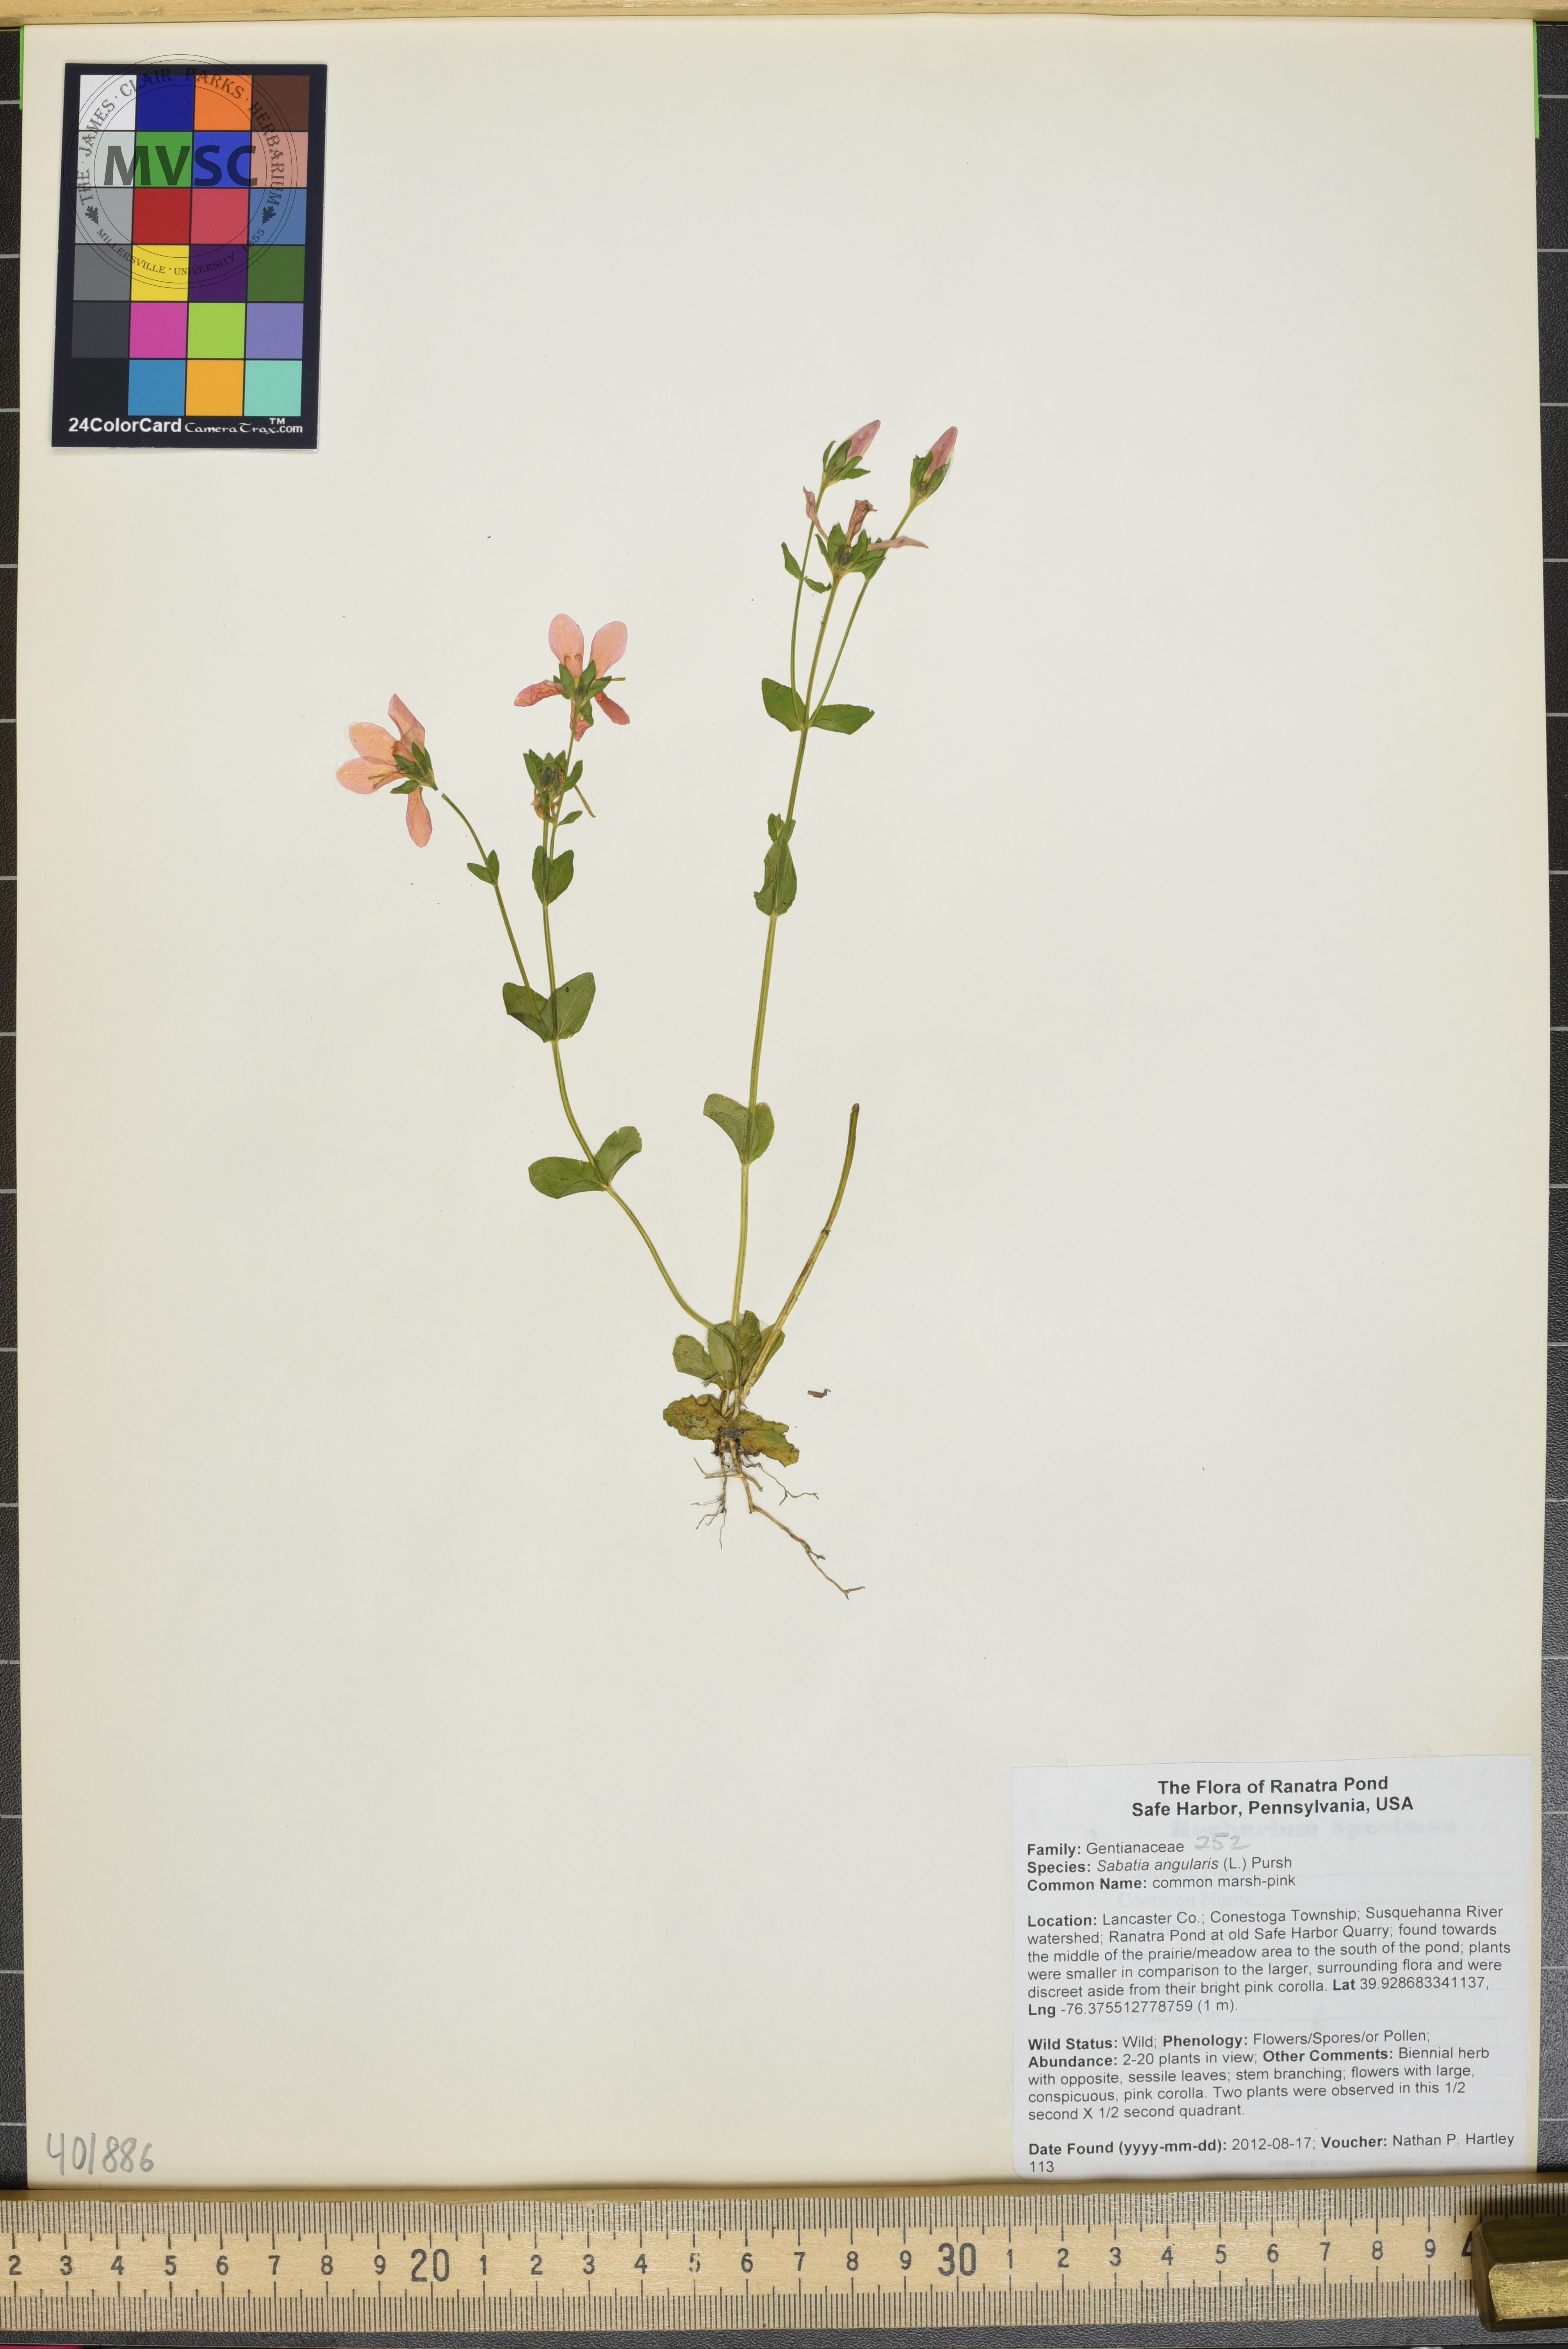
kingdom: Plantae
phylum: Tracheophyta
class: Magnoliopsida
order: Gentianales
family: Gentianaceae
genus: Sabatia
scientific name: Sabatia angularis
